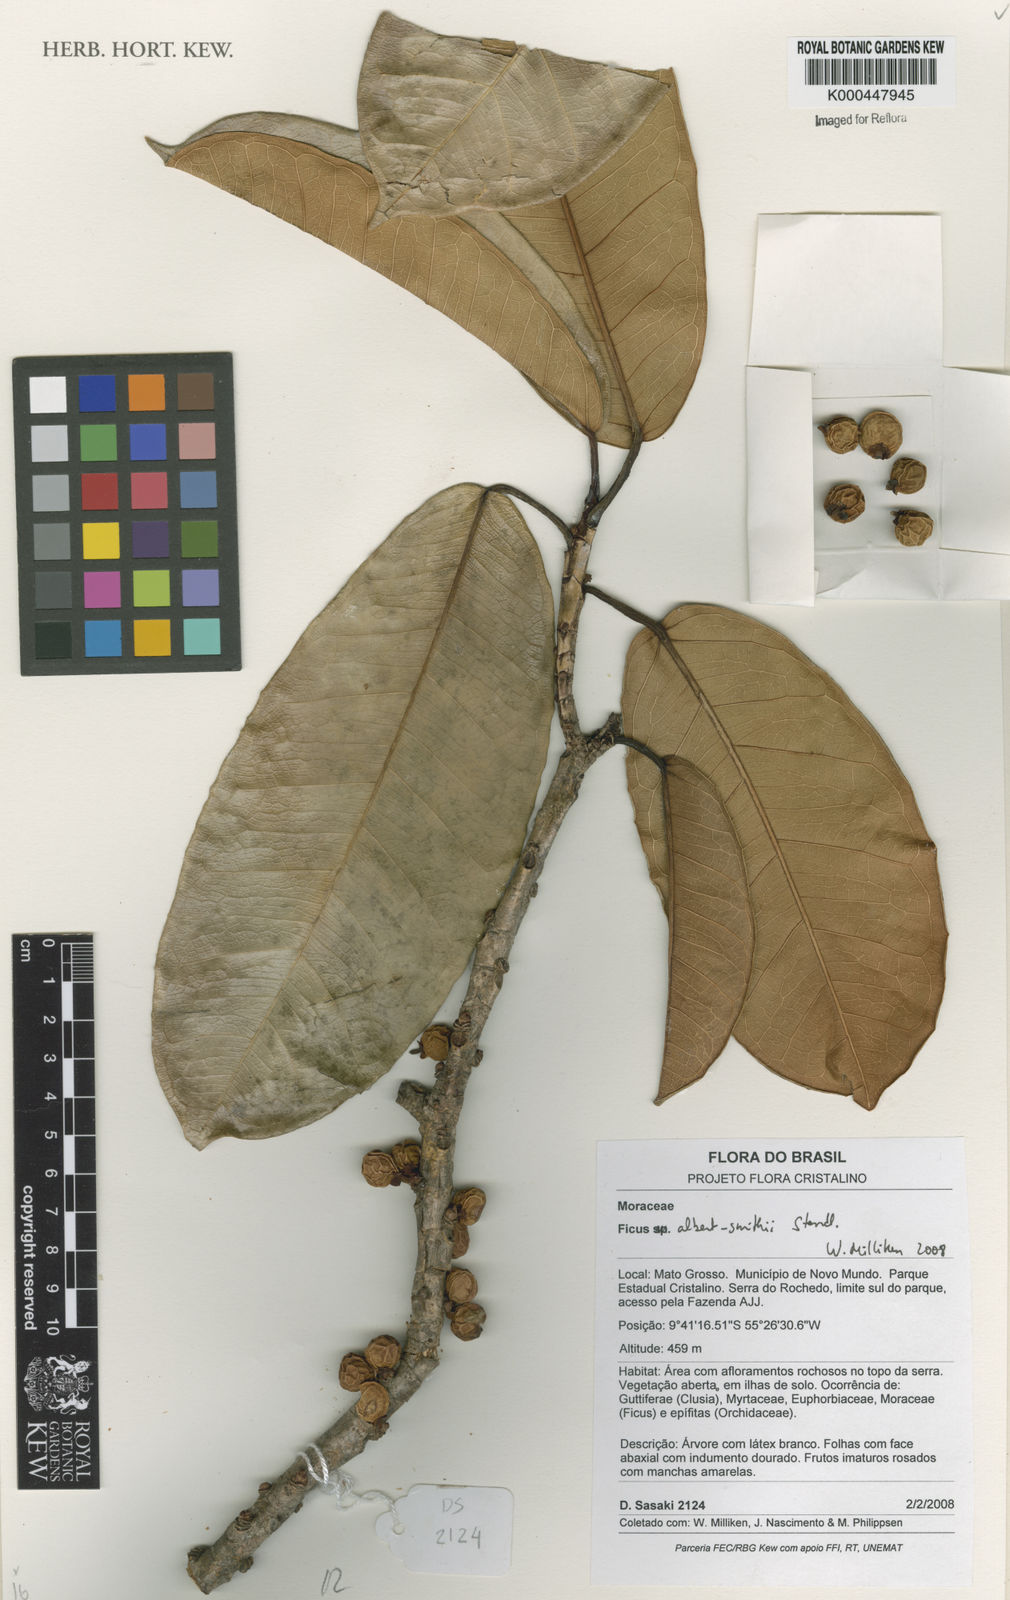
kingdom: Plantae
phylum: Tracheophyta
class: Magnoliopsida
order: Rosales
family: Moraceae
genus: Ficus
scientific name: Ficus albert-smithii
